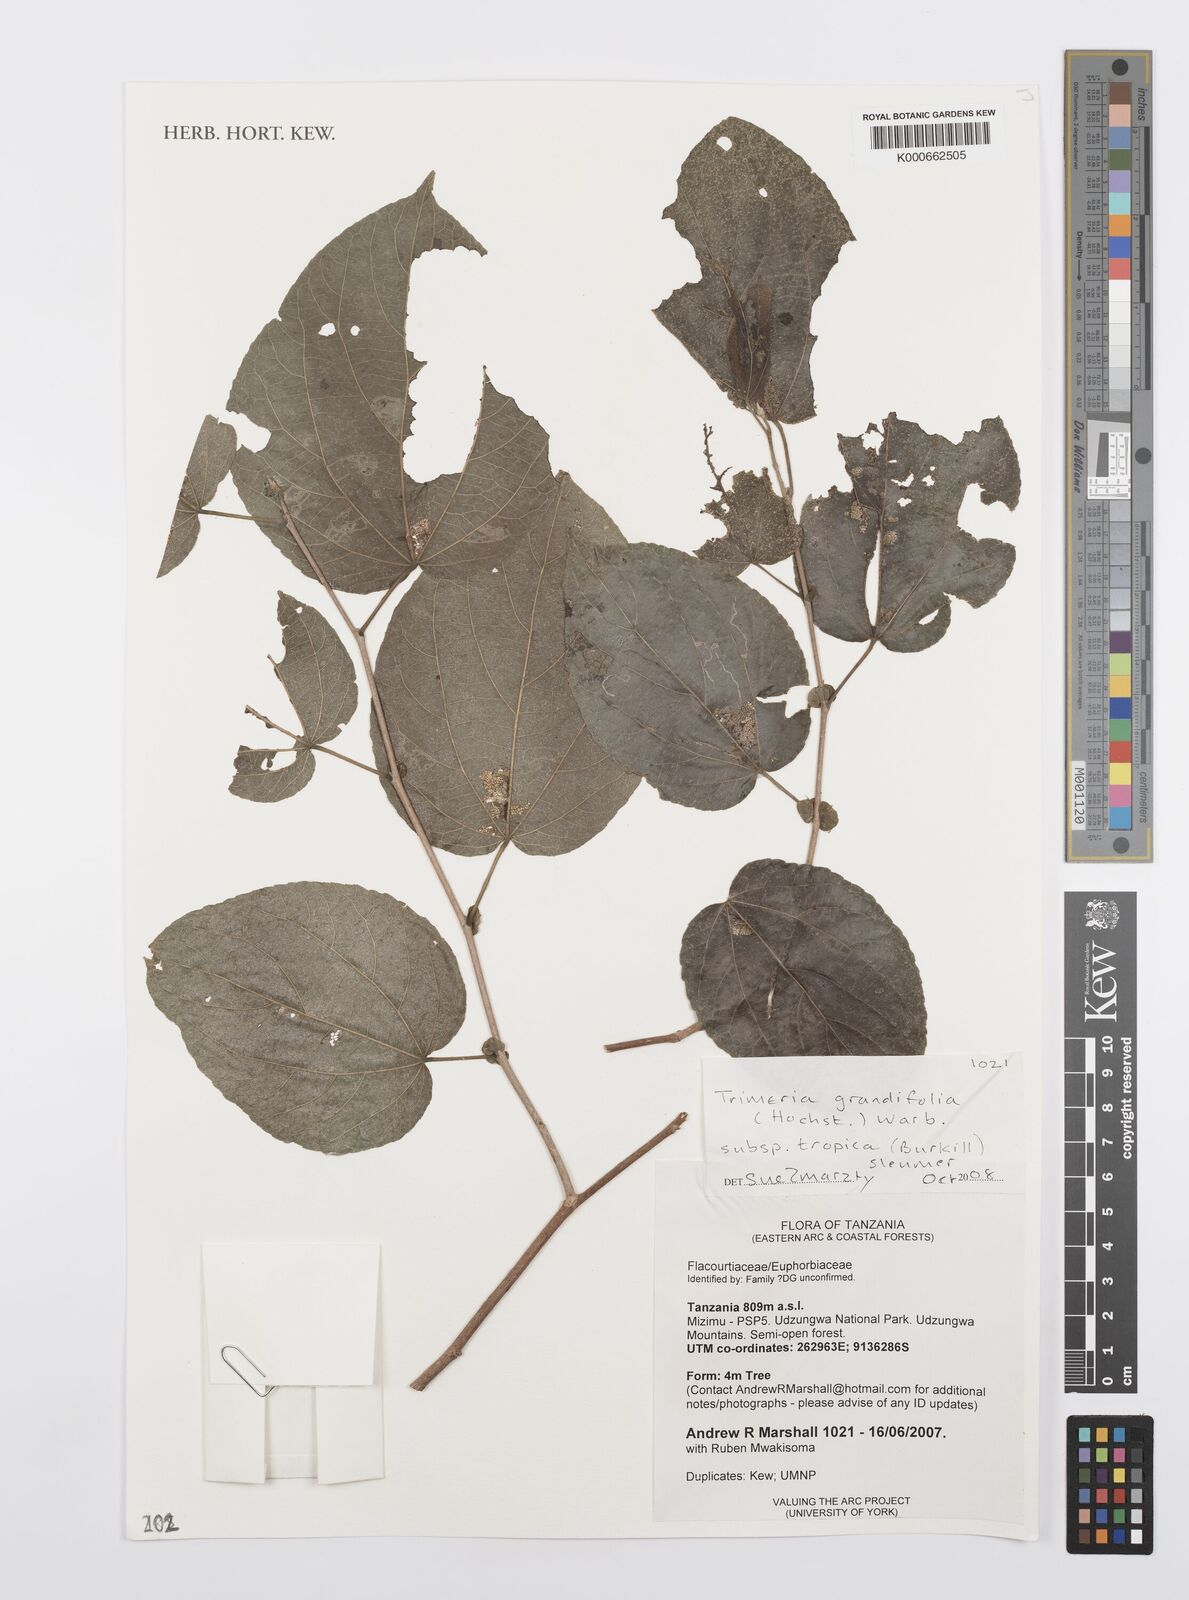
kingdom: Plantae
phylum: Tracheophyta
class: Magnoliopsida
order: Malpighiales
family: Salicaceae
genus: Trimeria
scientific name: Trimeria grandifolia
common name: Wild mulberry
